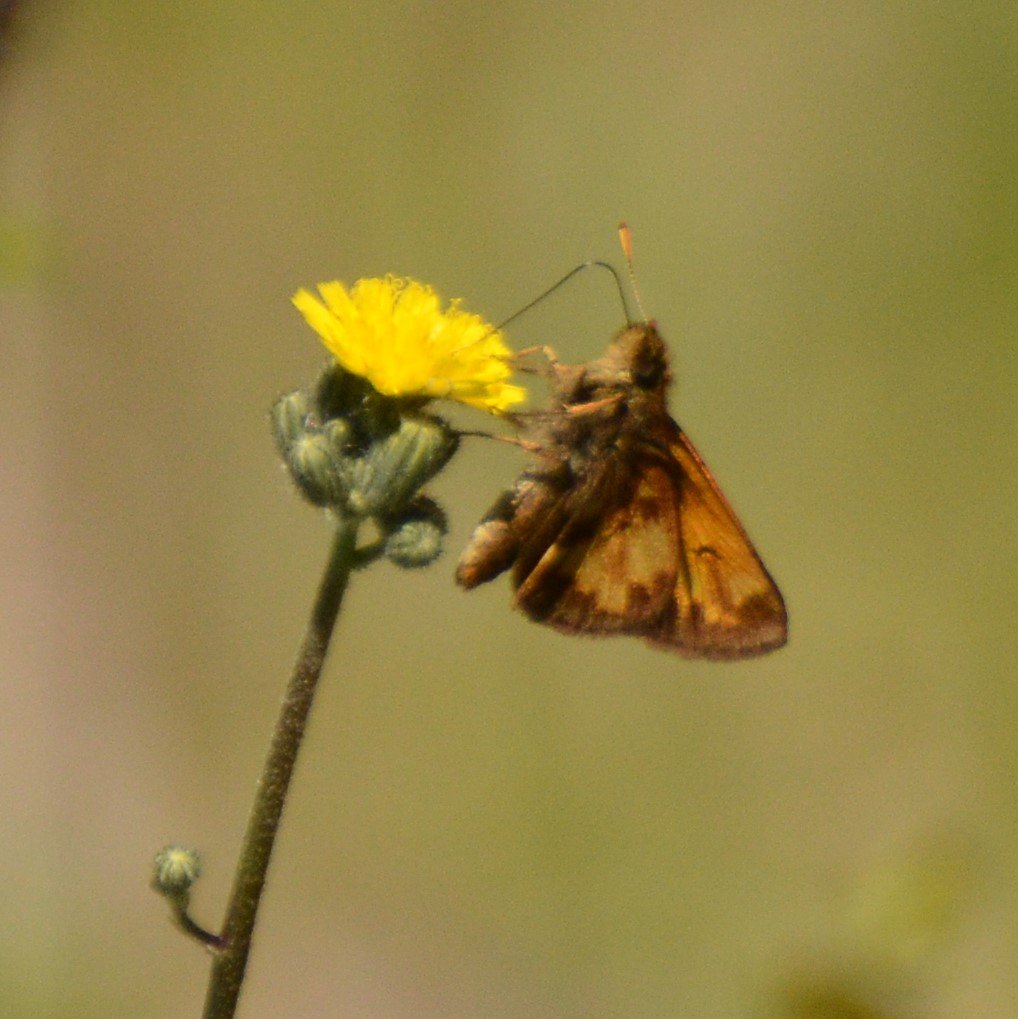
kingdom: Animalia
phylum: Arthropoda
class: Insecta
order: Lepidoptera
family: Hesperiidae
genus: Lon
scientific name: Lon hobomok
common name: Hobomok Skipper
